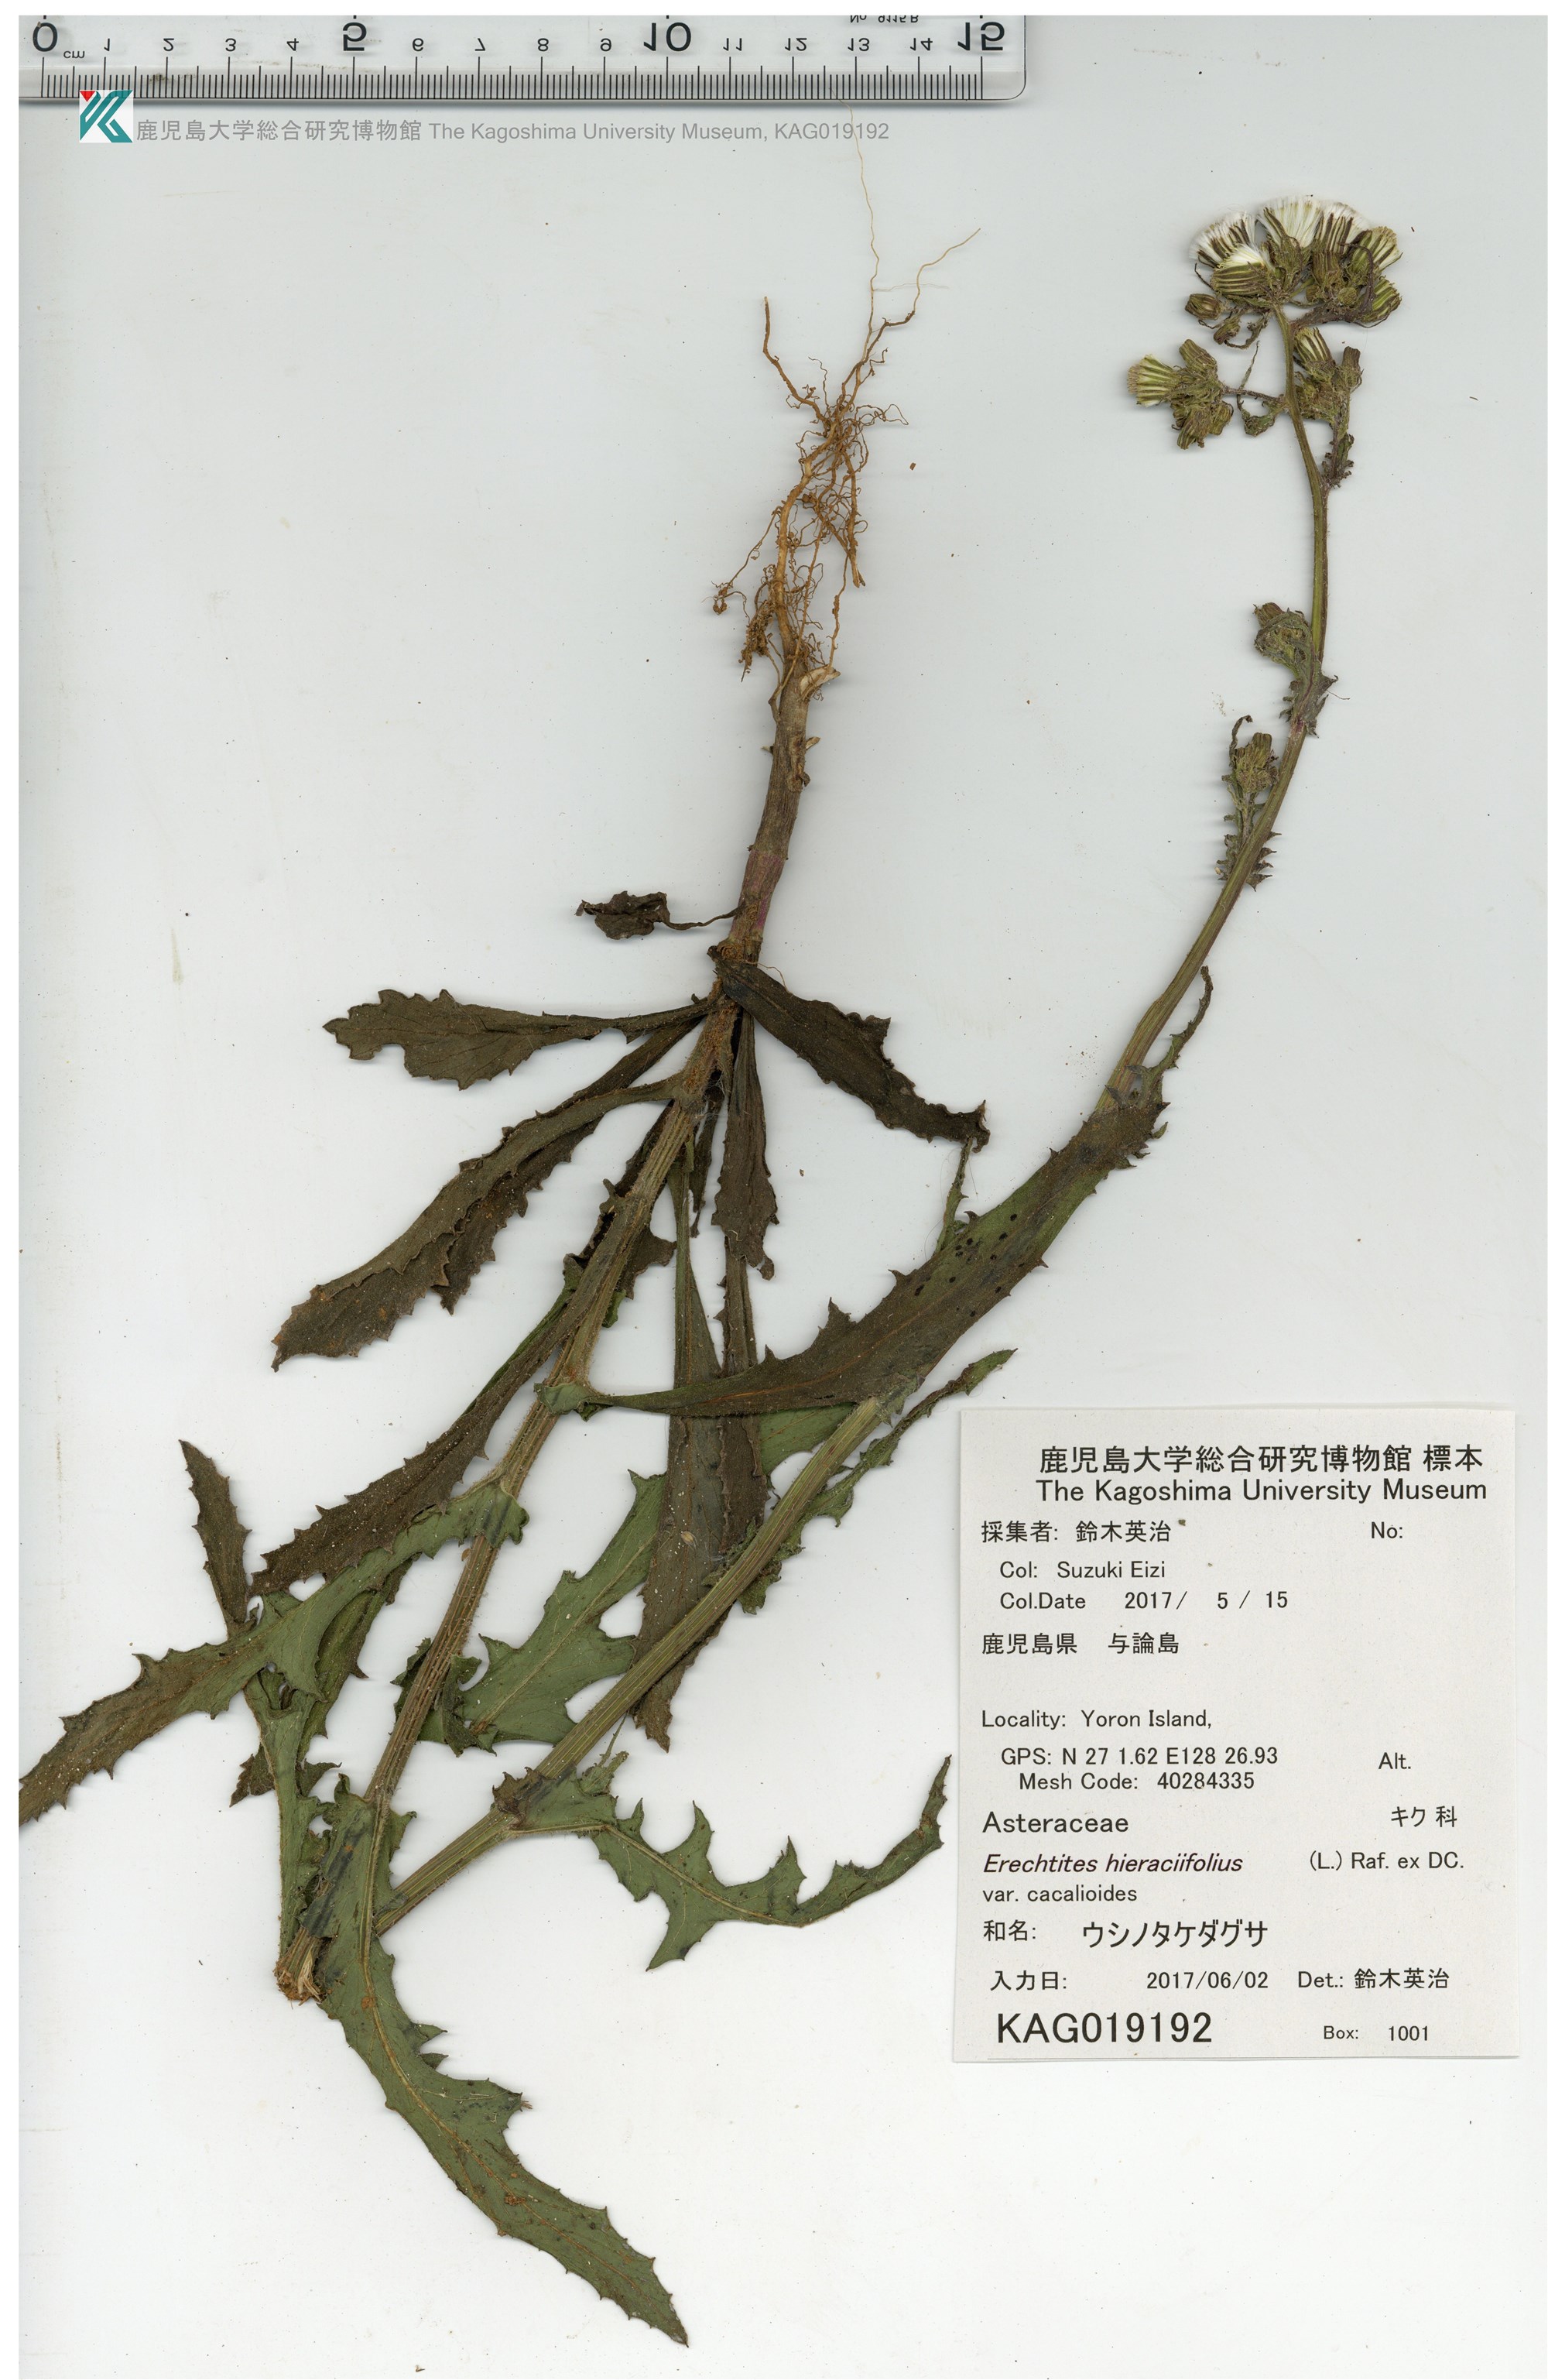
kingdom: Plantae
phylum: Tracheophyta
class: Magnoliopsida
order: Asterales
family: Asteraceae
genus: Erechtites
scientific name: Erechtites hieraciifolius
